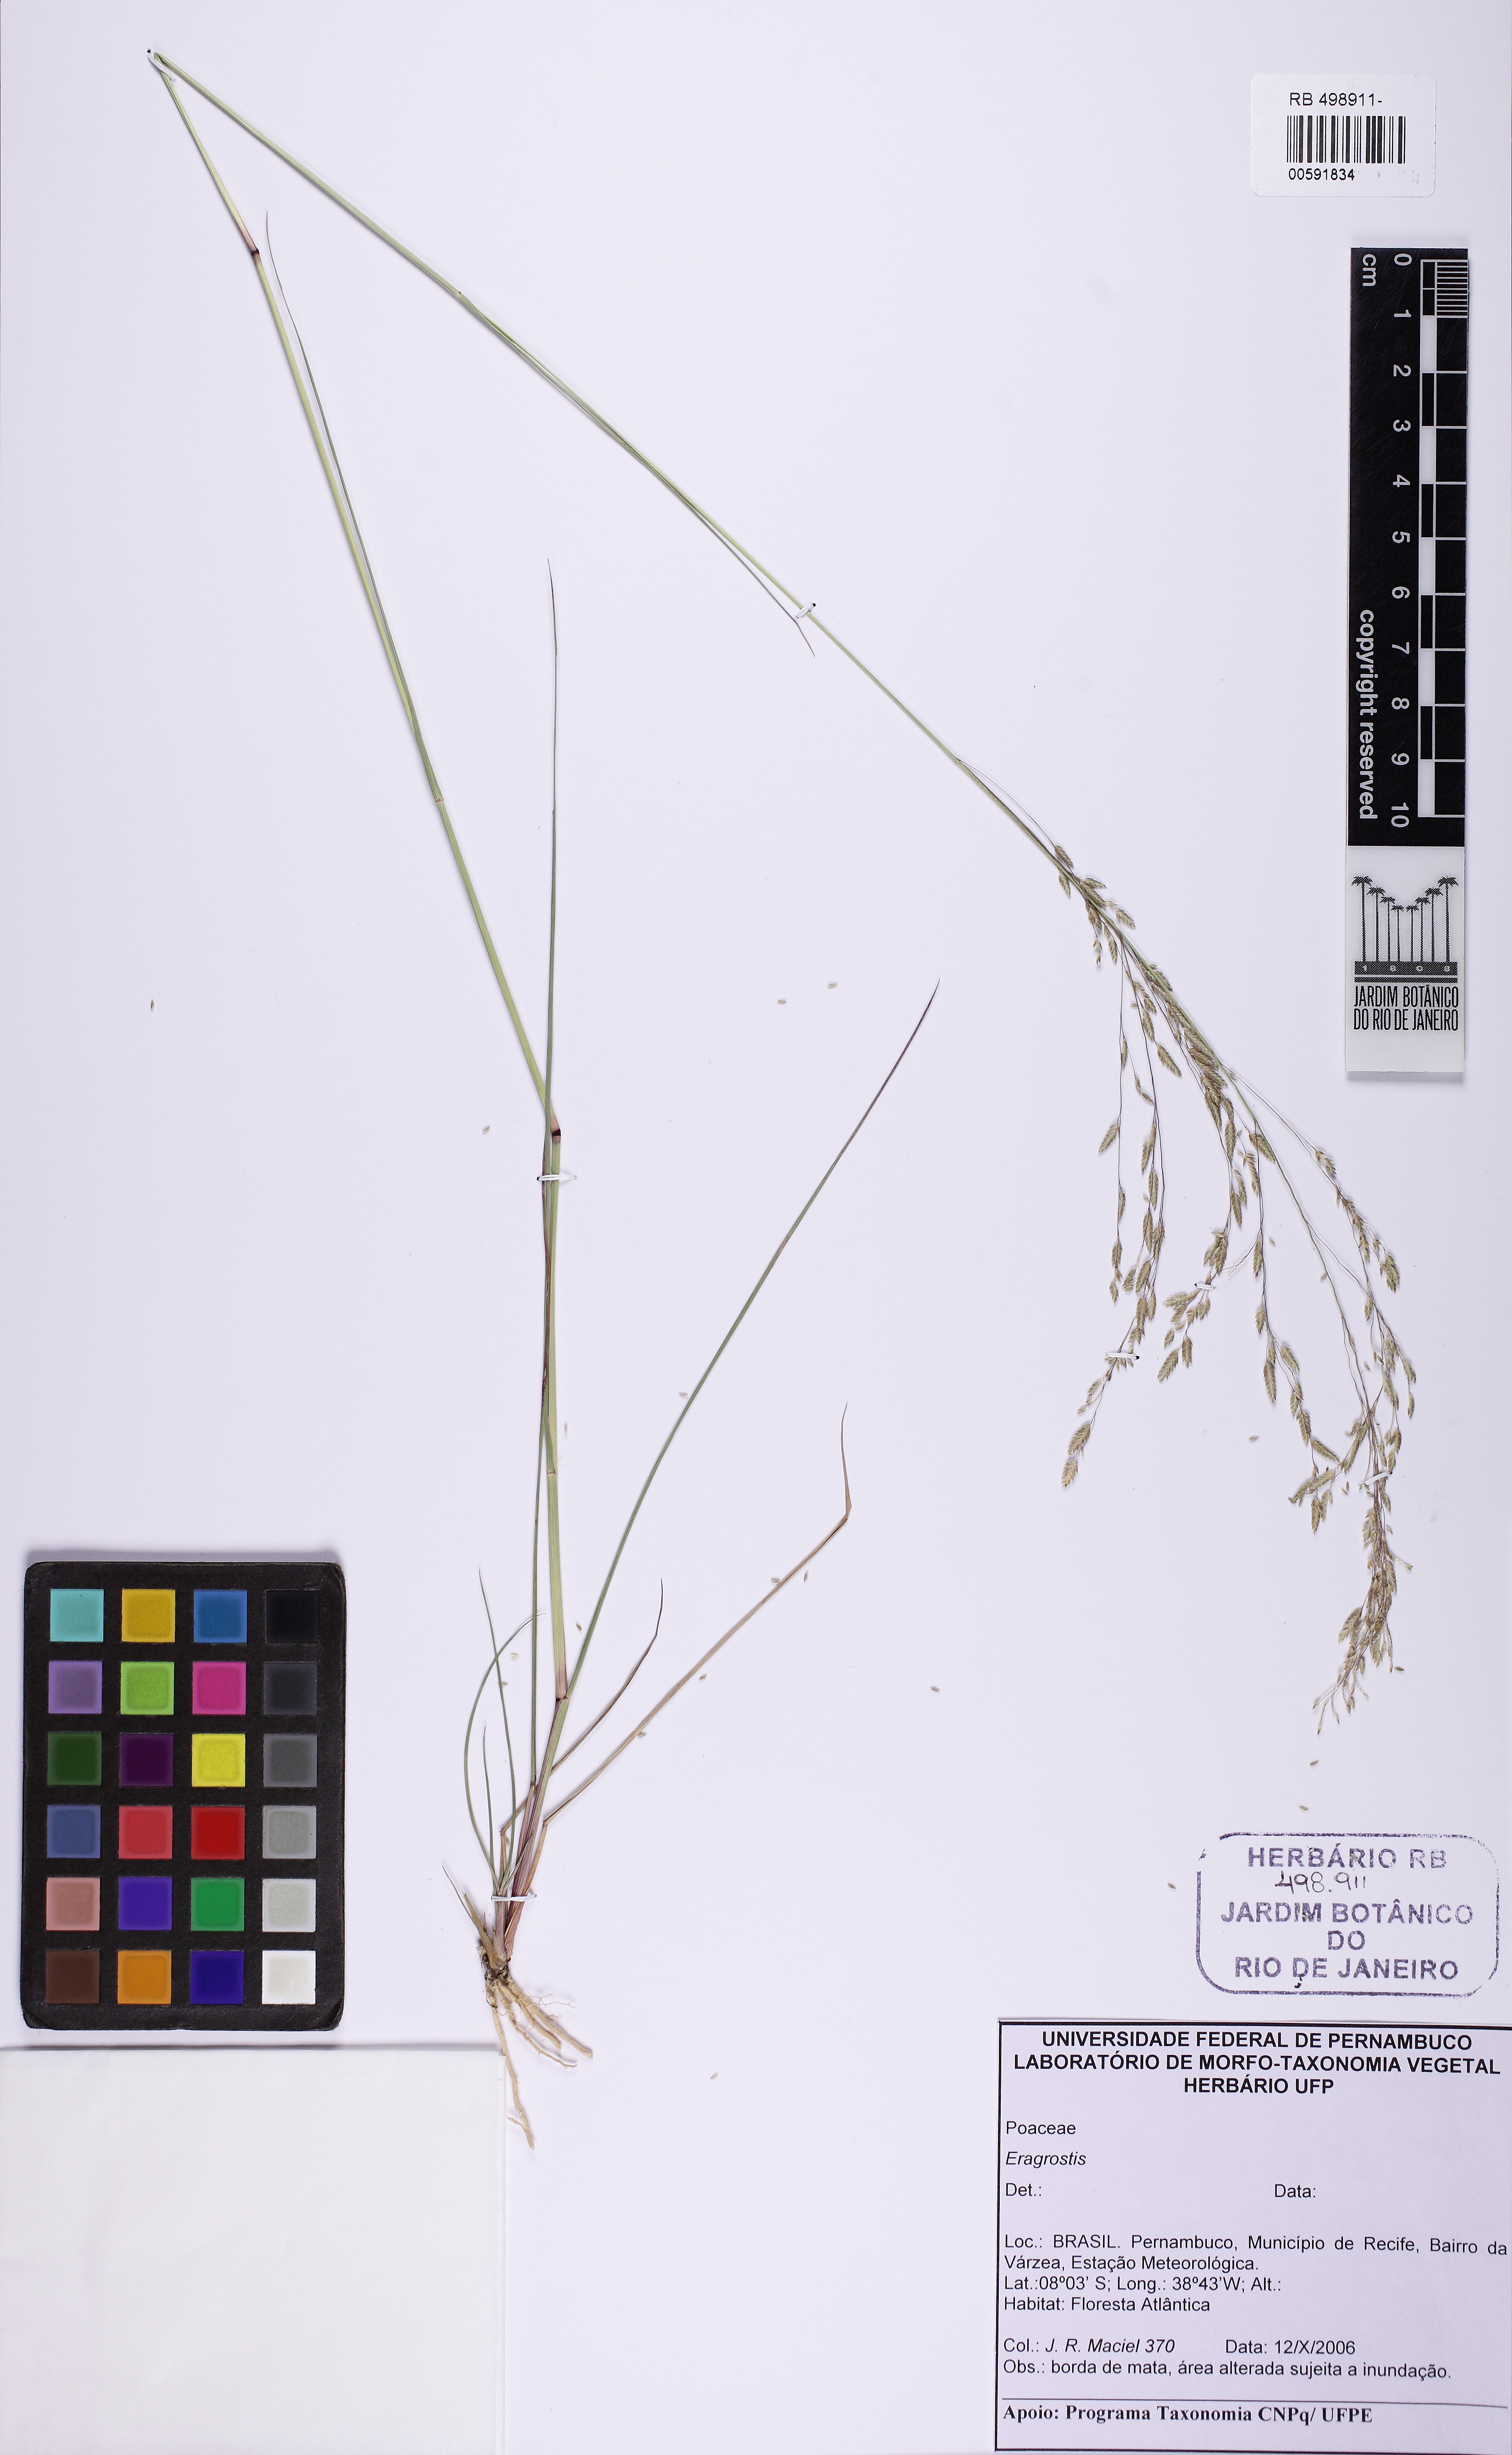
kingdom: Plantae
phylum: Tracheophyta
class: Liliopsida
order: Poales
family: Poaceae
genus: Eragrostis
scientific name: Eragrostis
